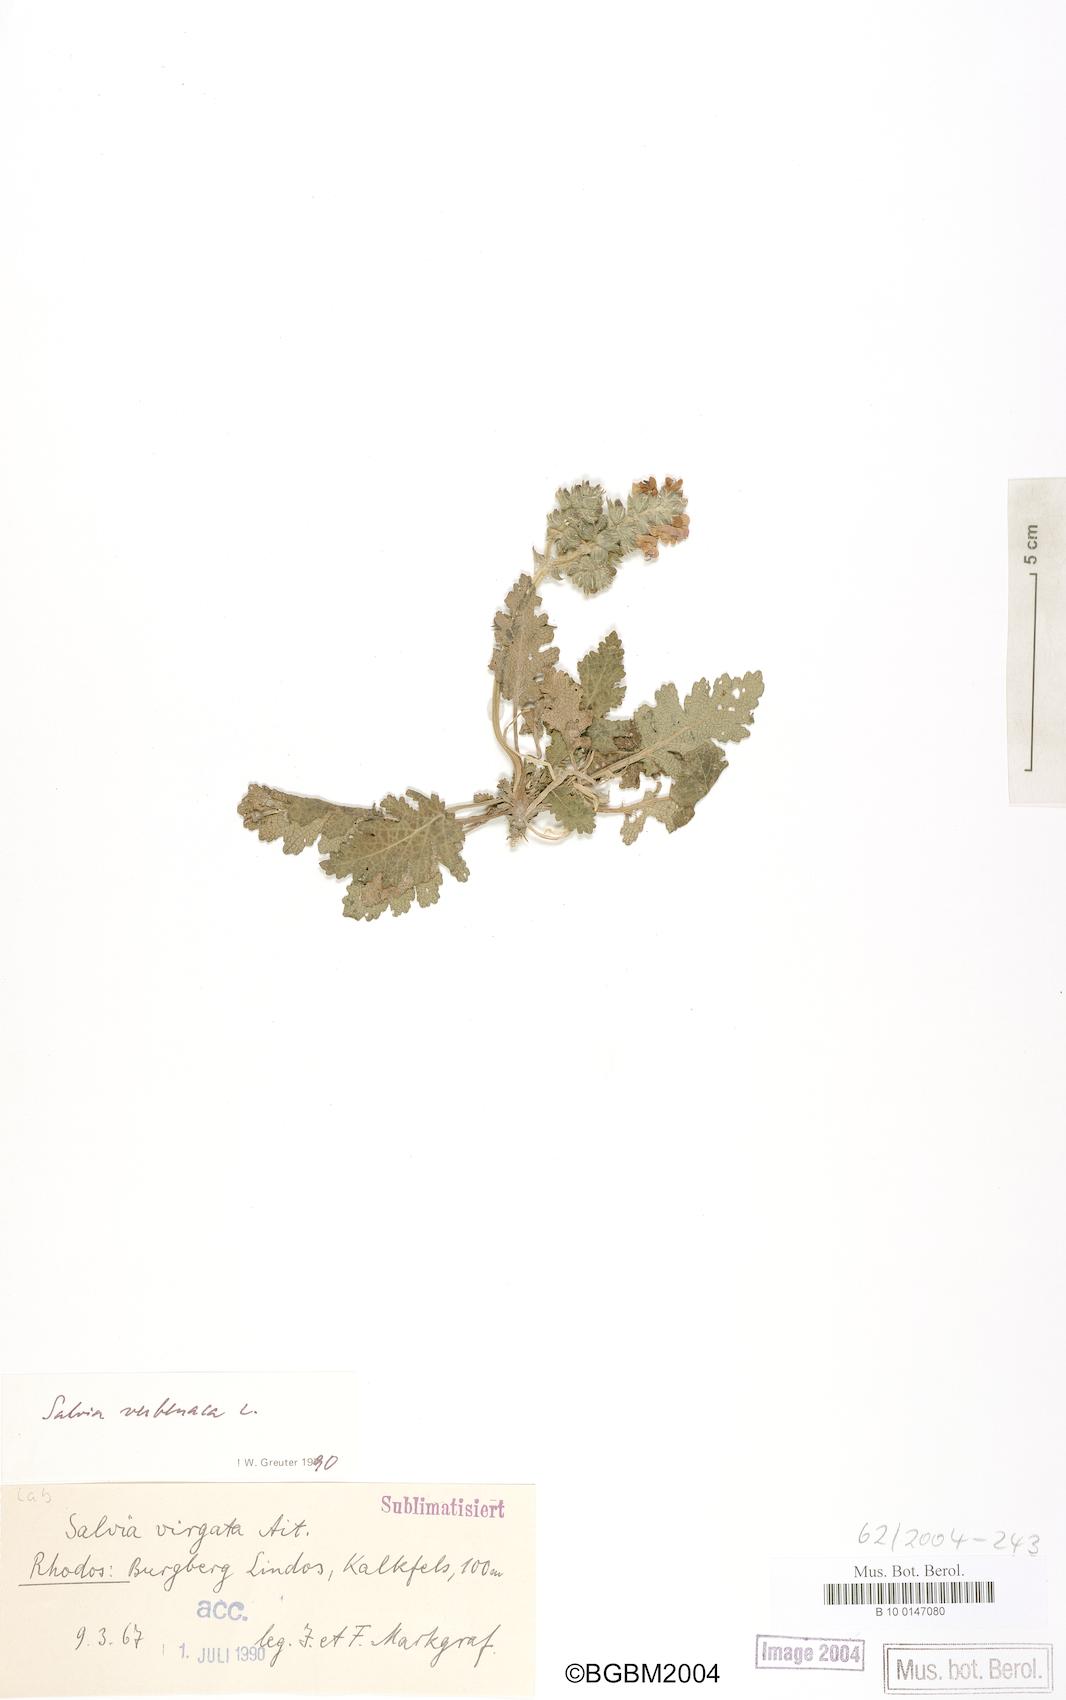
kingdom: Plantae
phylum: Tracheophyta
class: Magnoliopsida
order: Lamiales
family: Lamiaceae
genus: Salvia
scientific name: Salvia verbenaca
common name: Wild clary
